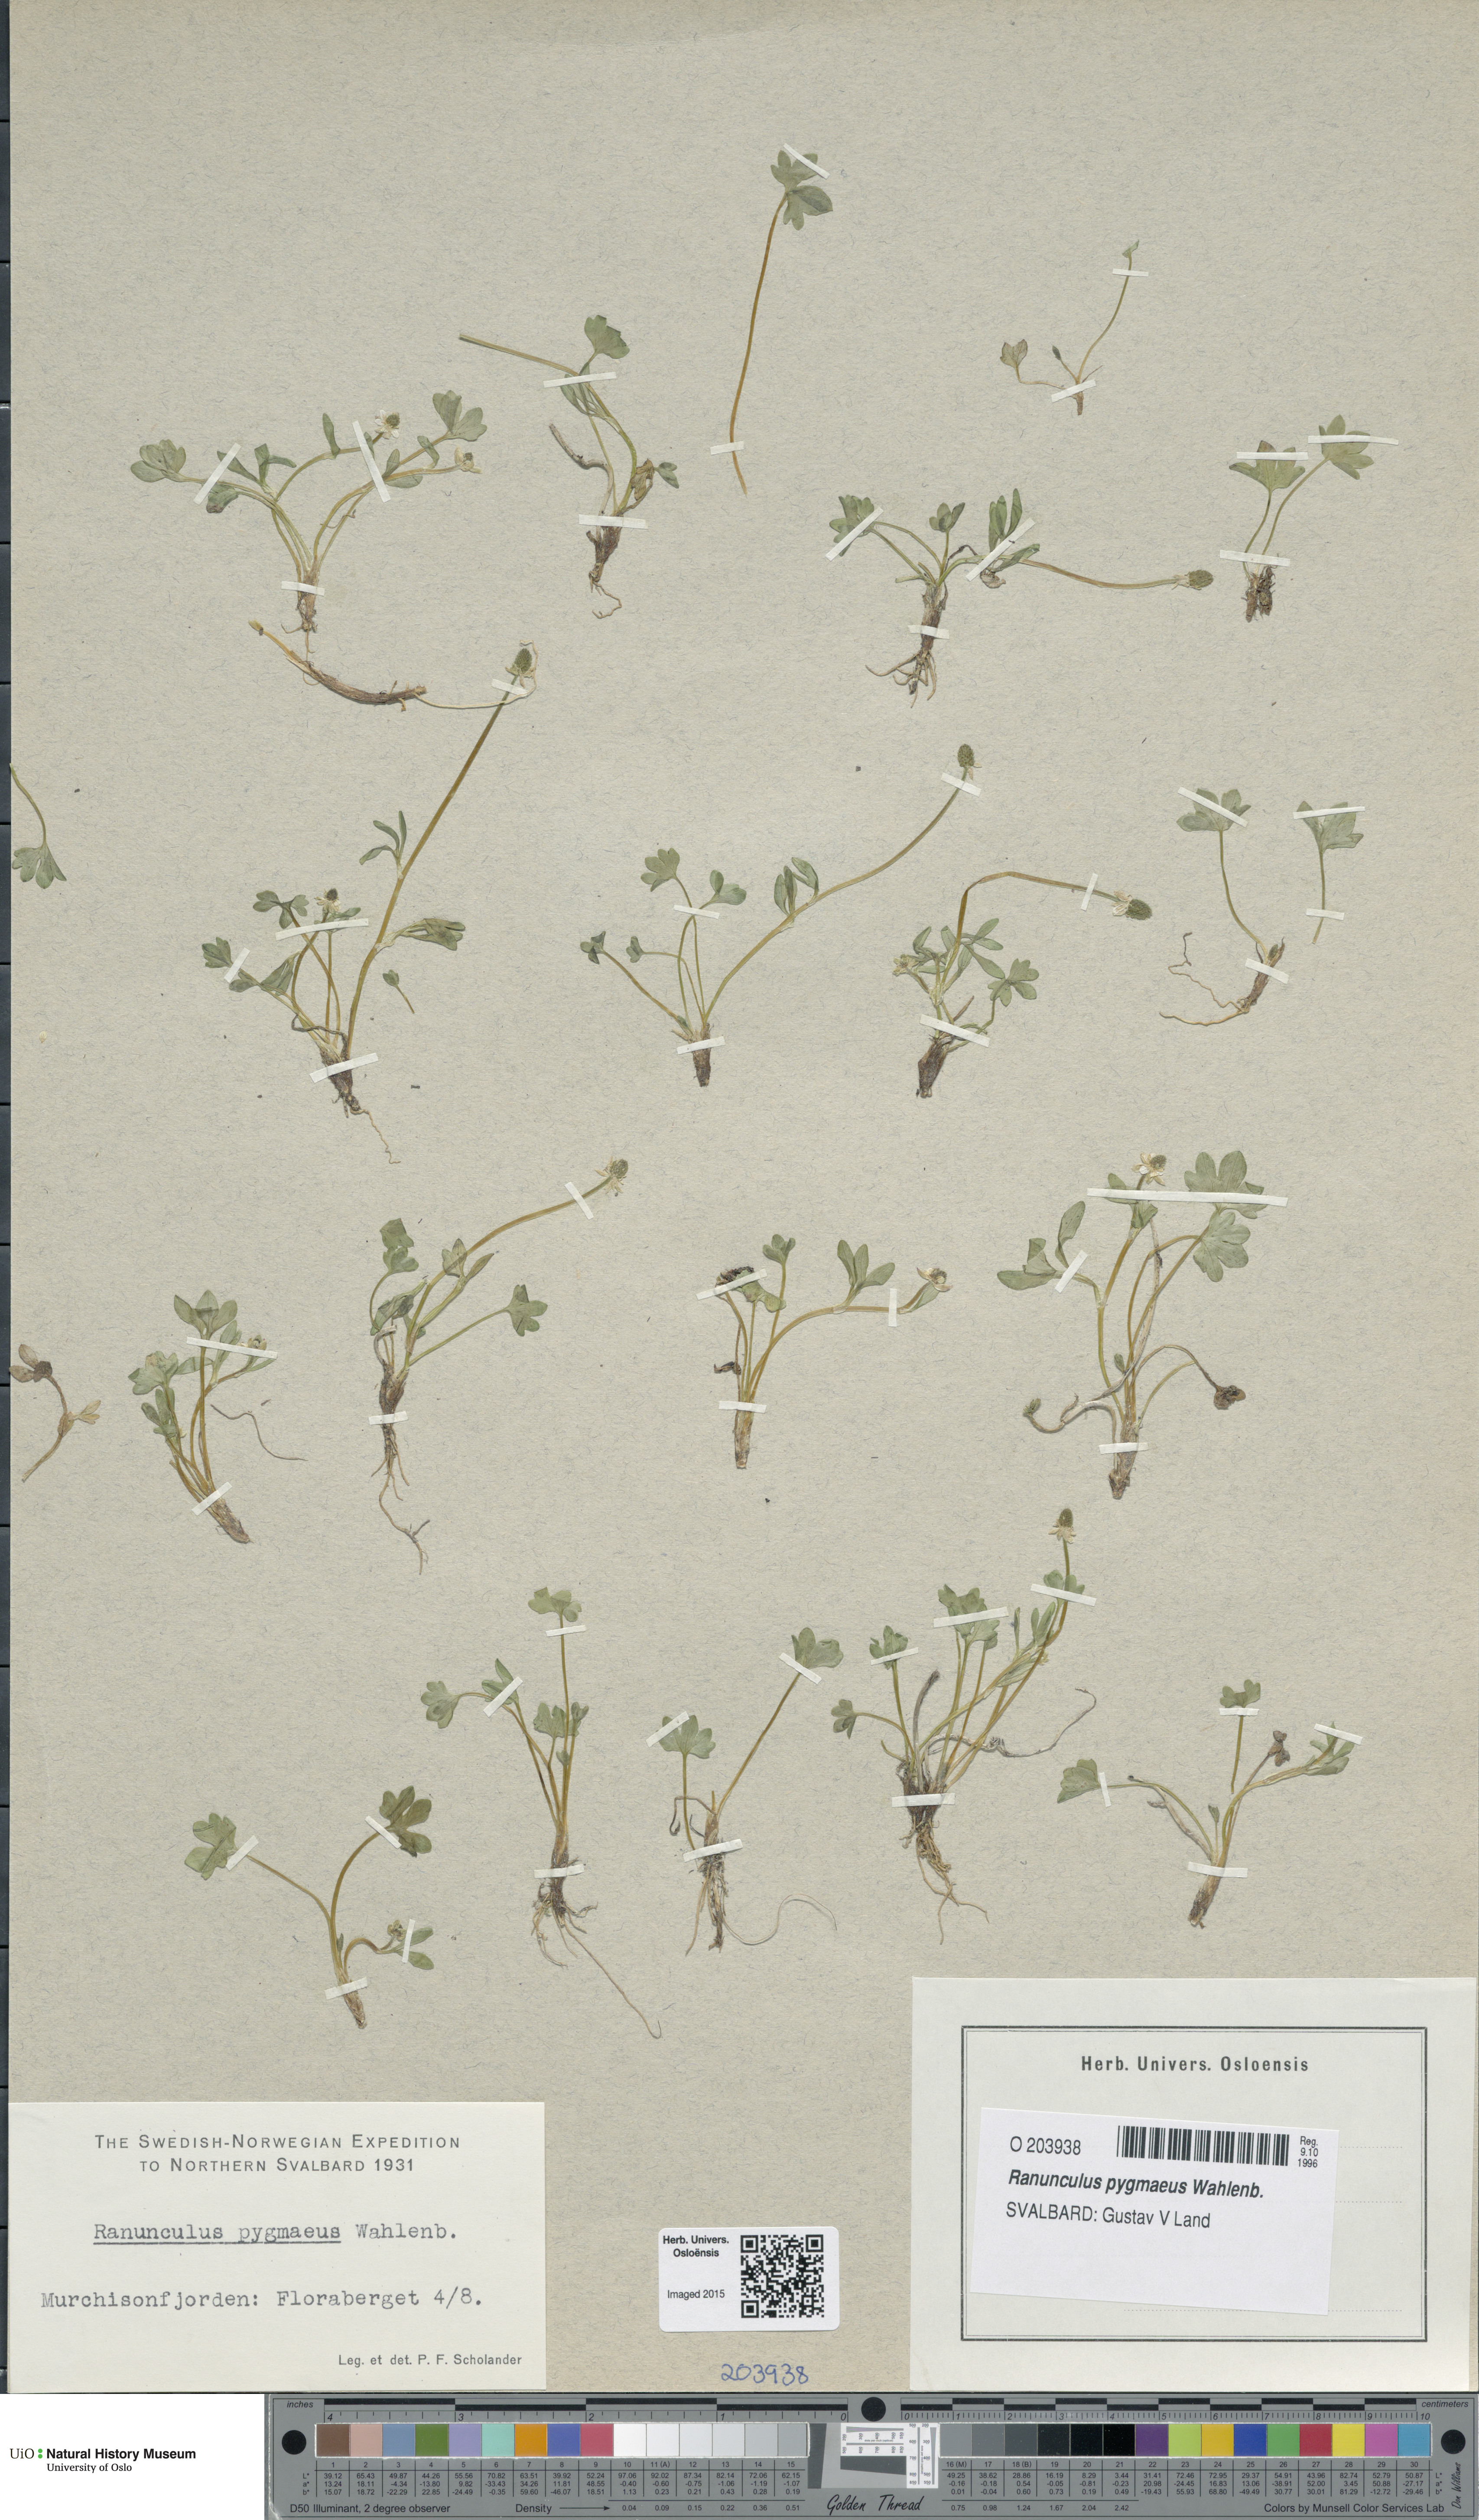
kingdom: Plantae
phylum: Tracheophyta
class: Magnoliopsida
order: Ranunculales
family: Ranunculaceae
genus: Ranunculus
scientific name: Ranunculus pygmaeus
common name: Dwarf buttercup
